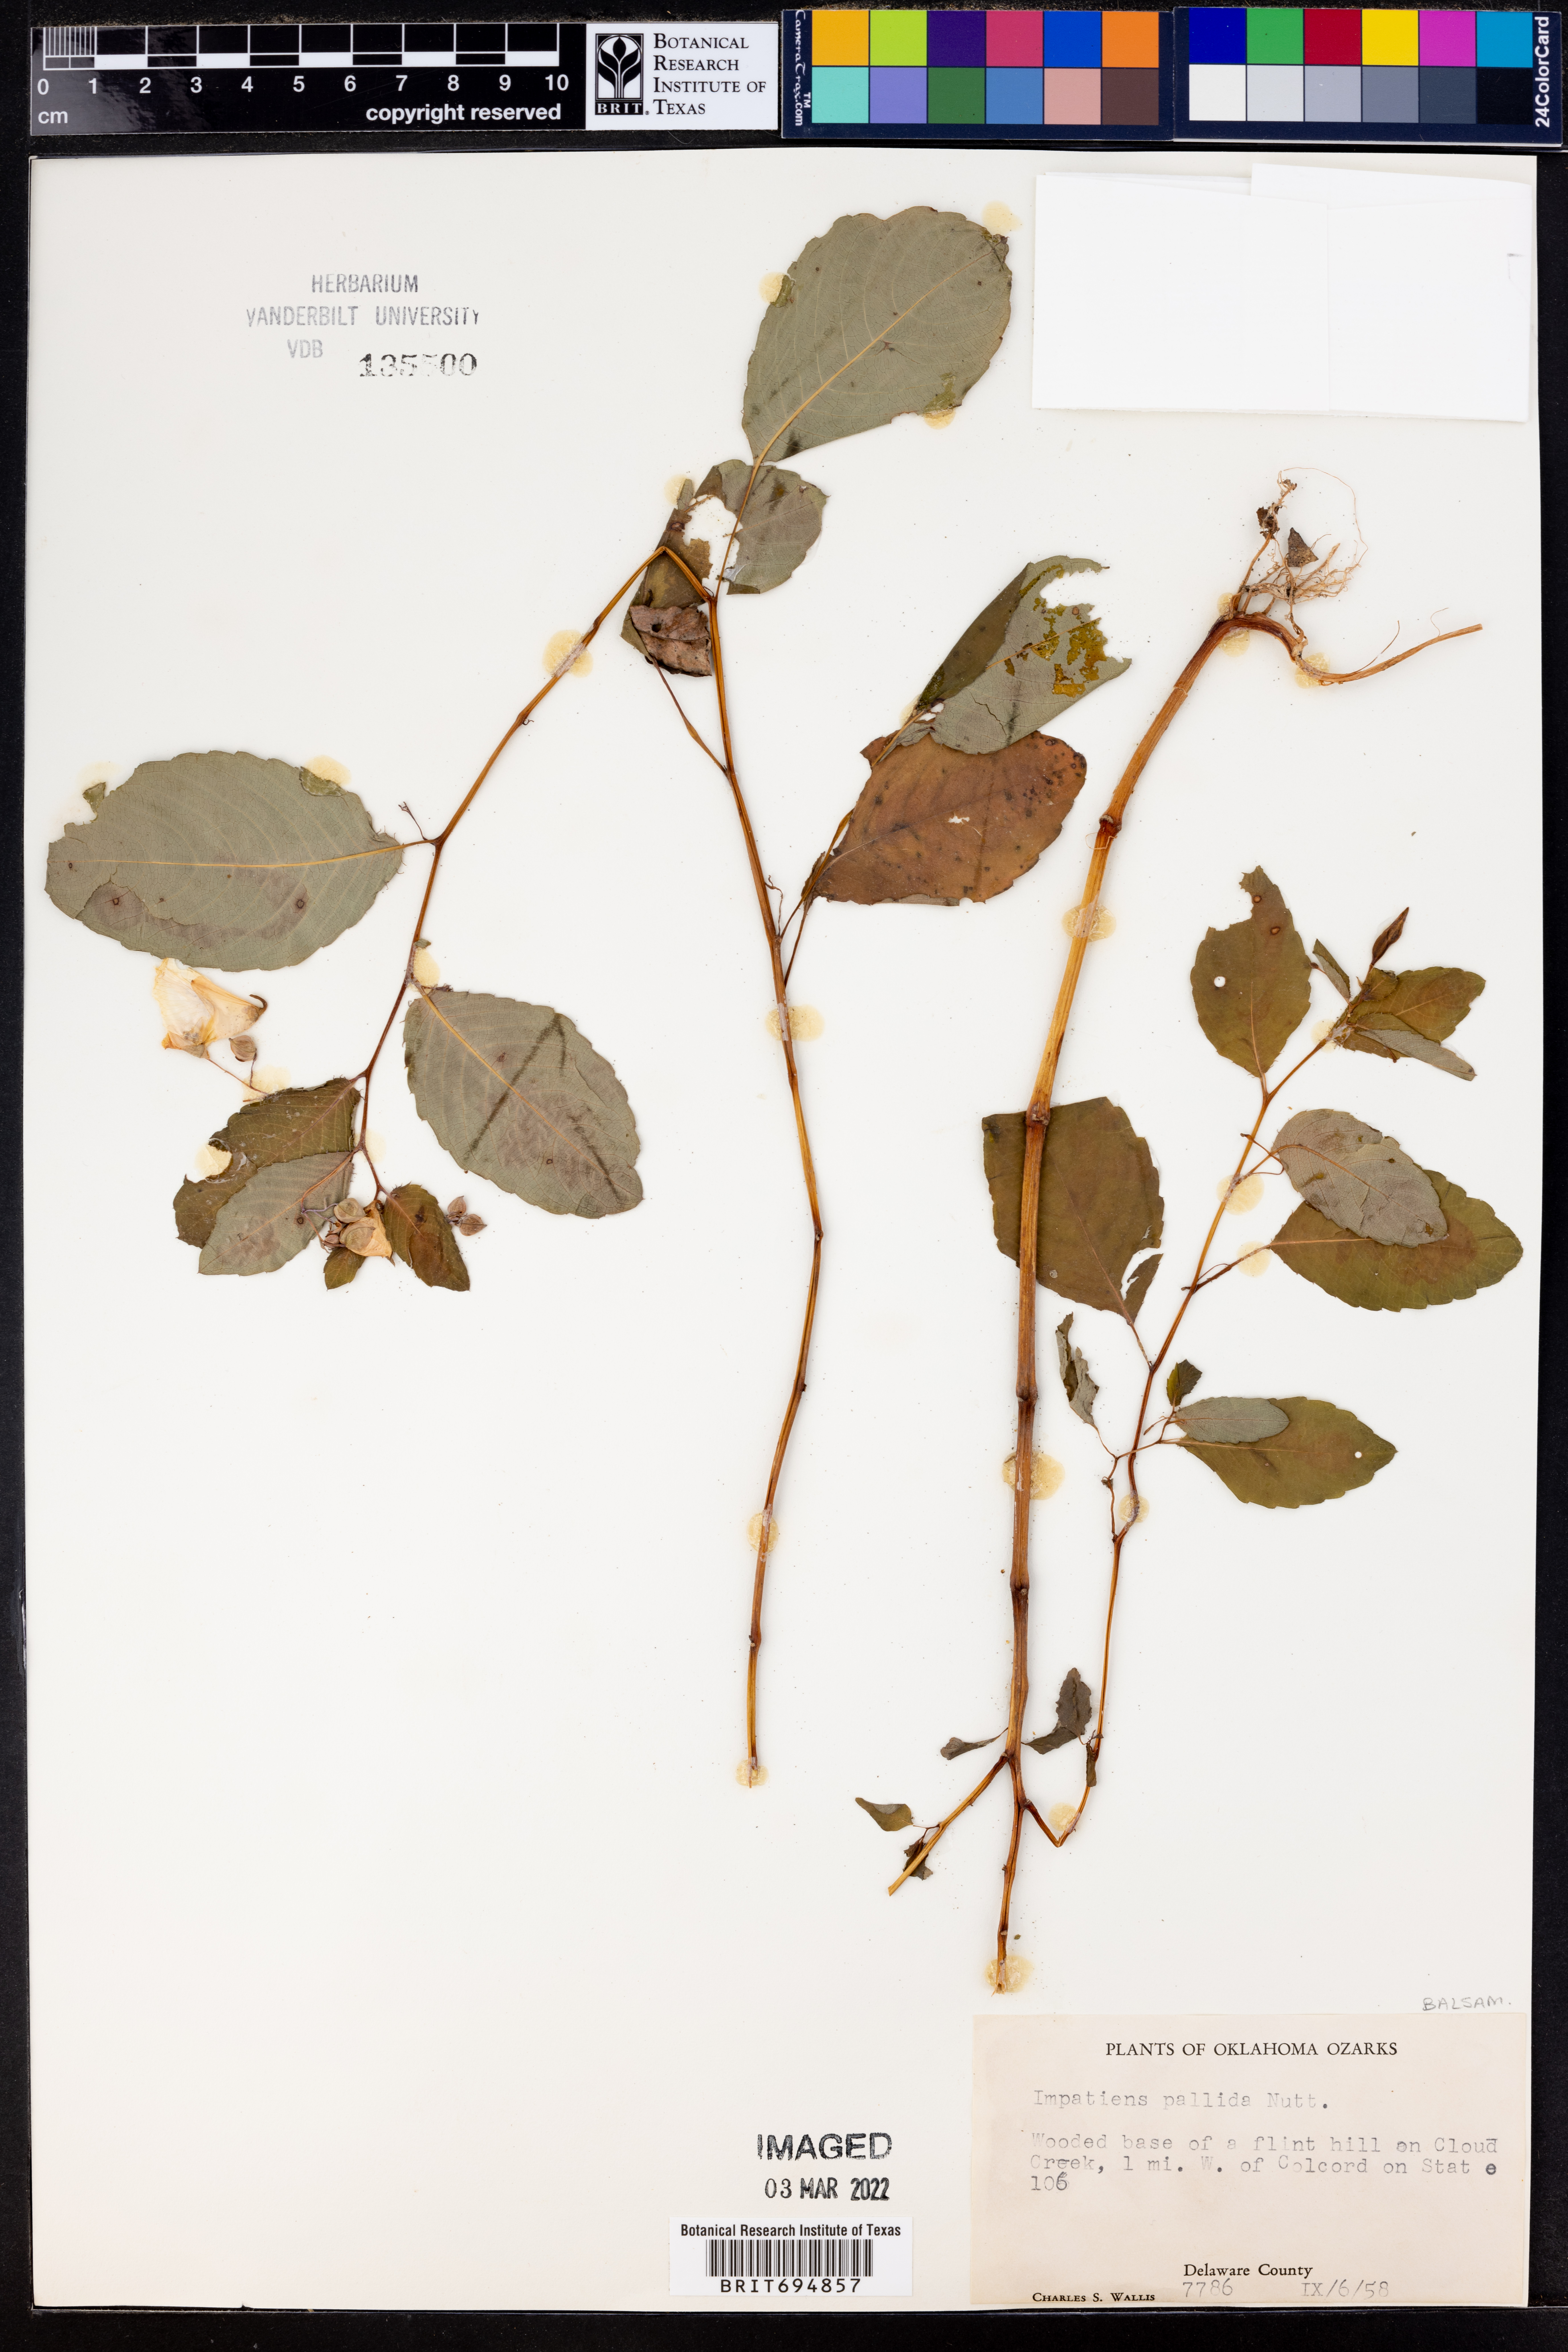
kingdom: Plantae
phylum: Tracheophyta
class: Magnoliopsida
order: Ericales
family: Balsaminaceae
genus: Impatiens
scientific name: Impatiens pallida
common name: Pale snapweed
